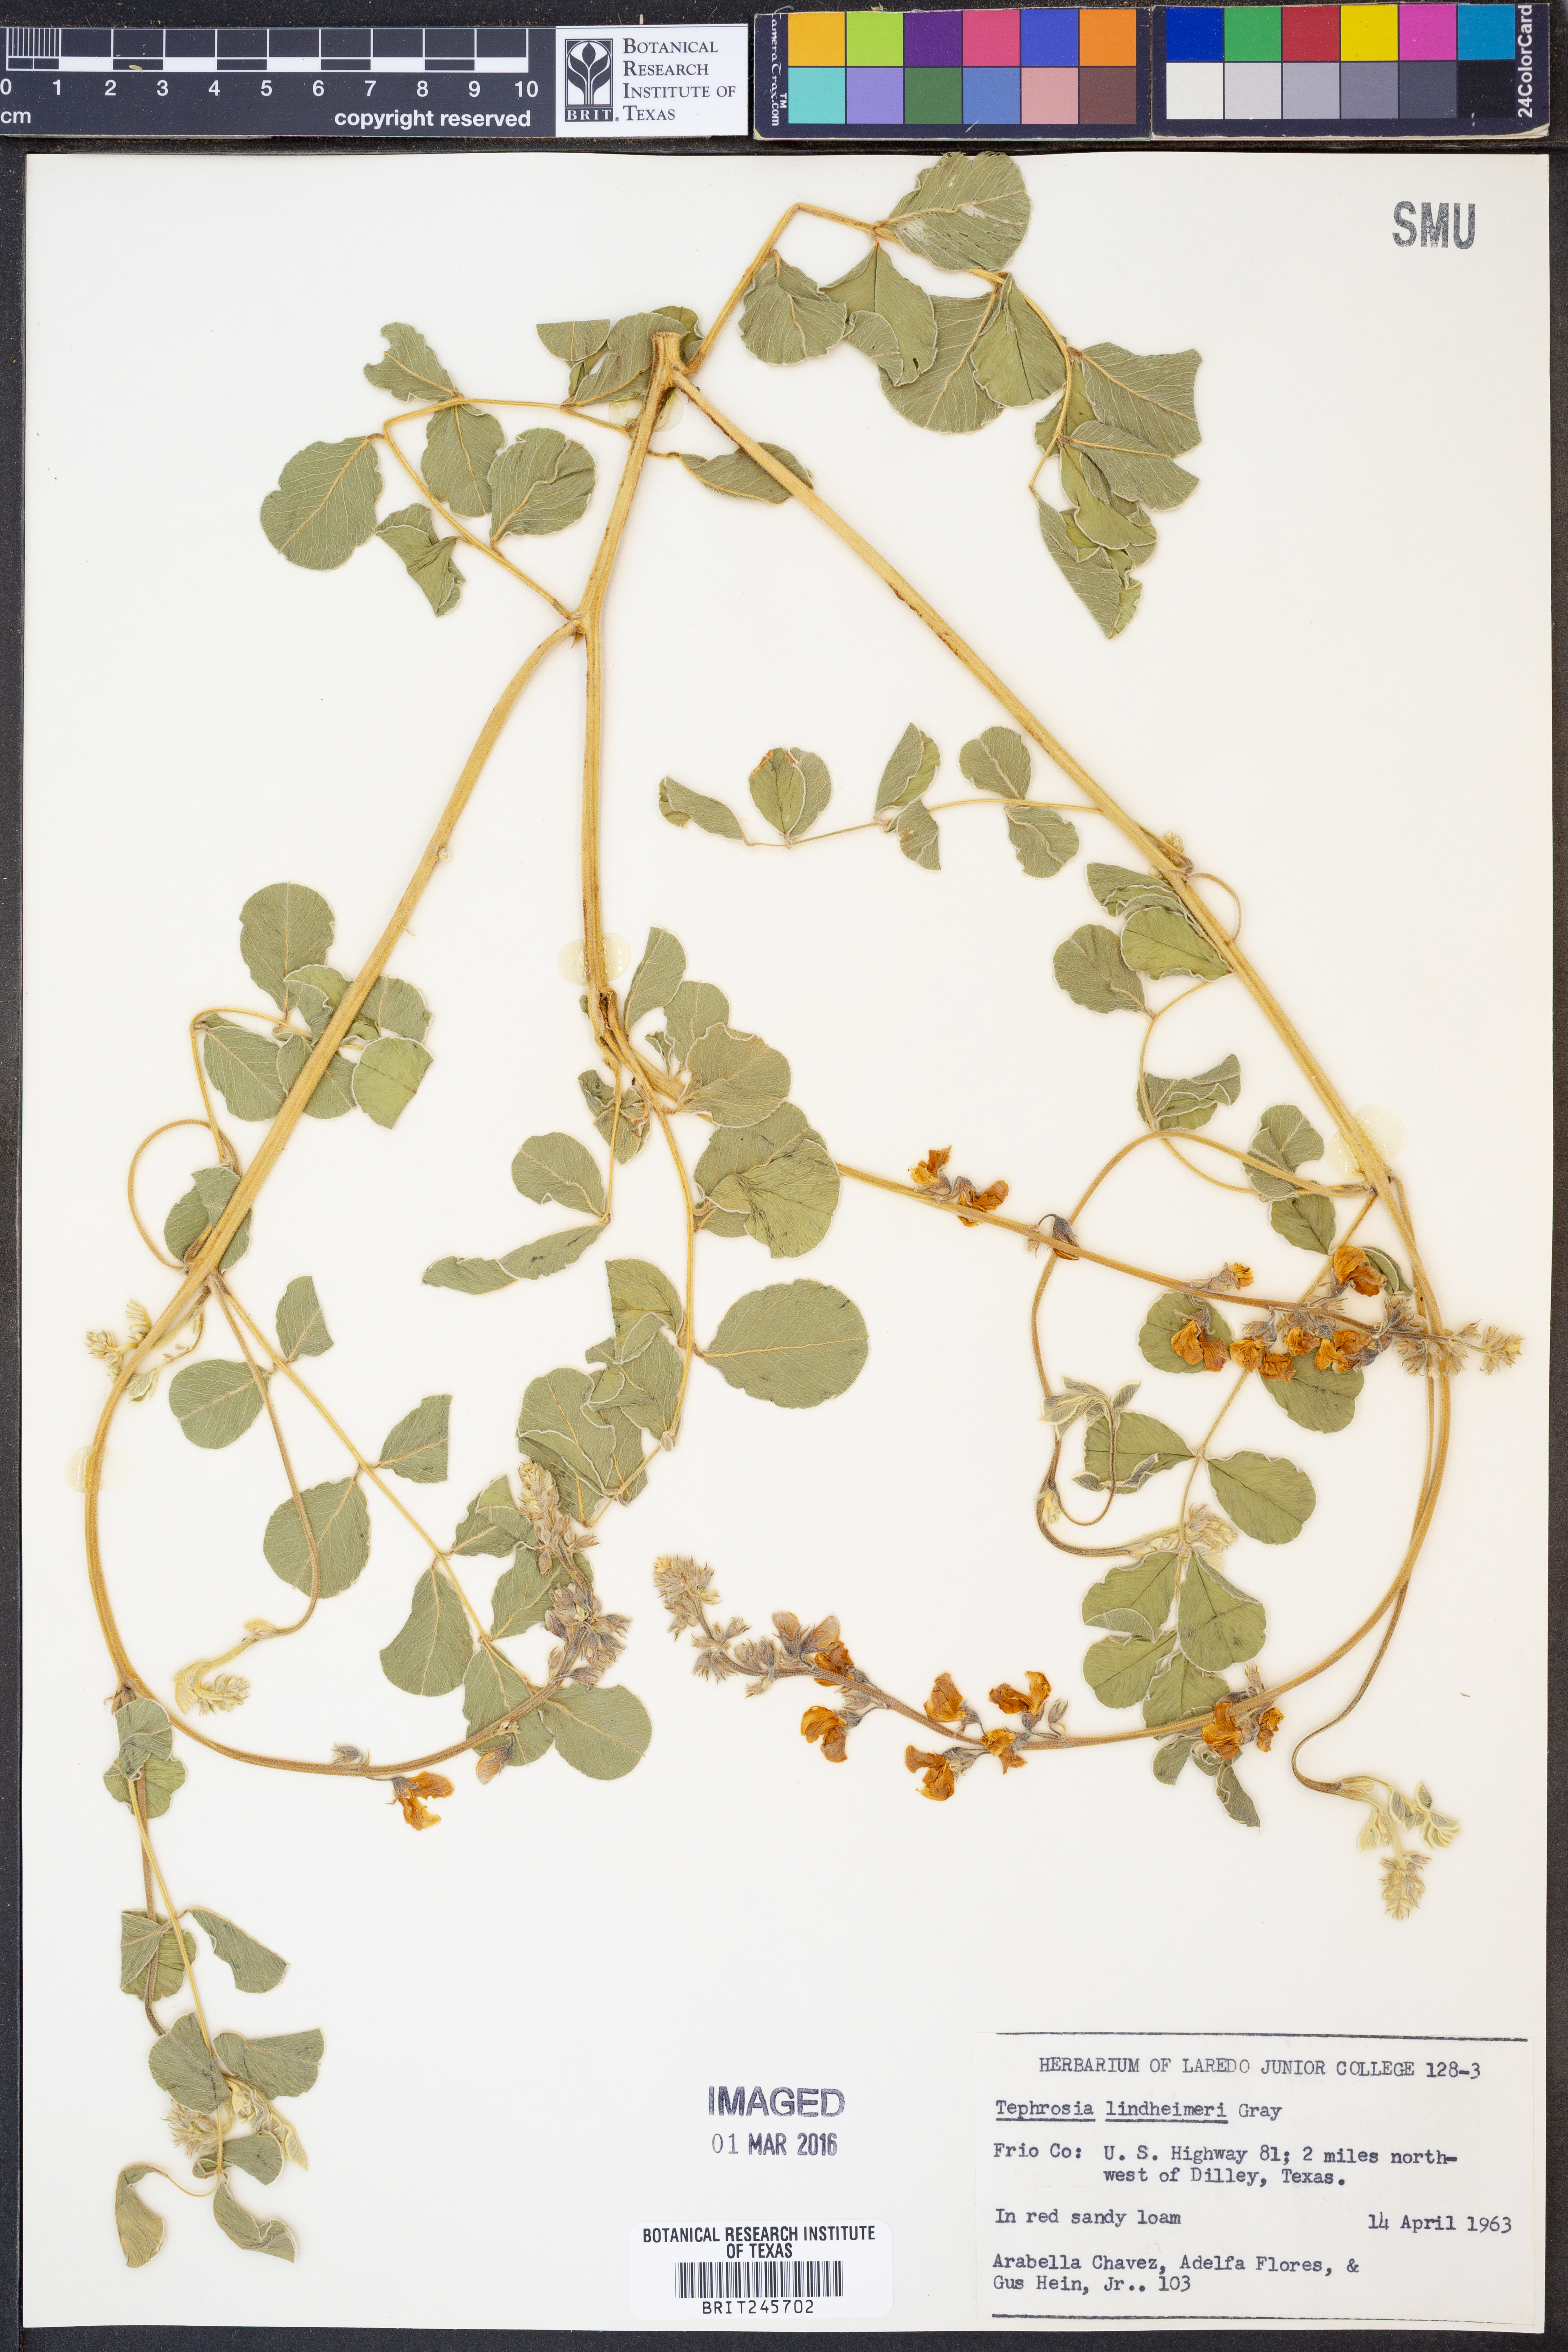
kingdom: Plantae
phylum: Tracheophyta
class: Magnoliopsida
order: Fabales
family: Fabaceae
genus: Tephrosia
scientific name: Tephrosia lindheimeri
